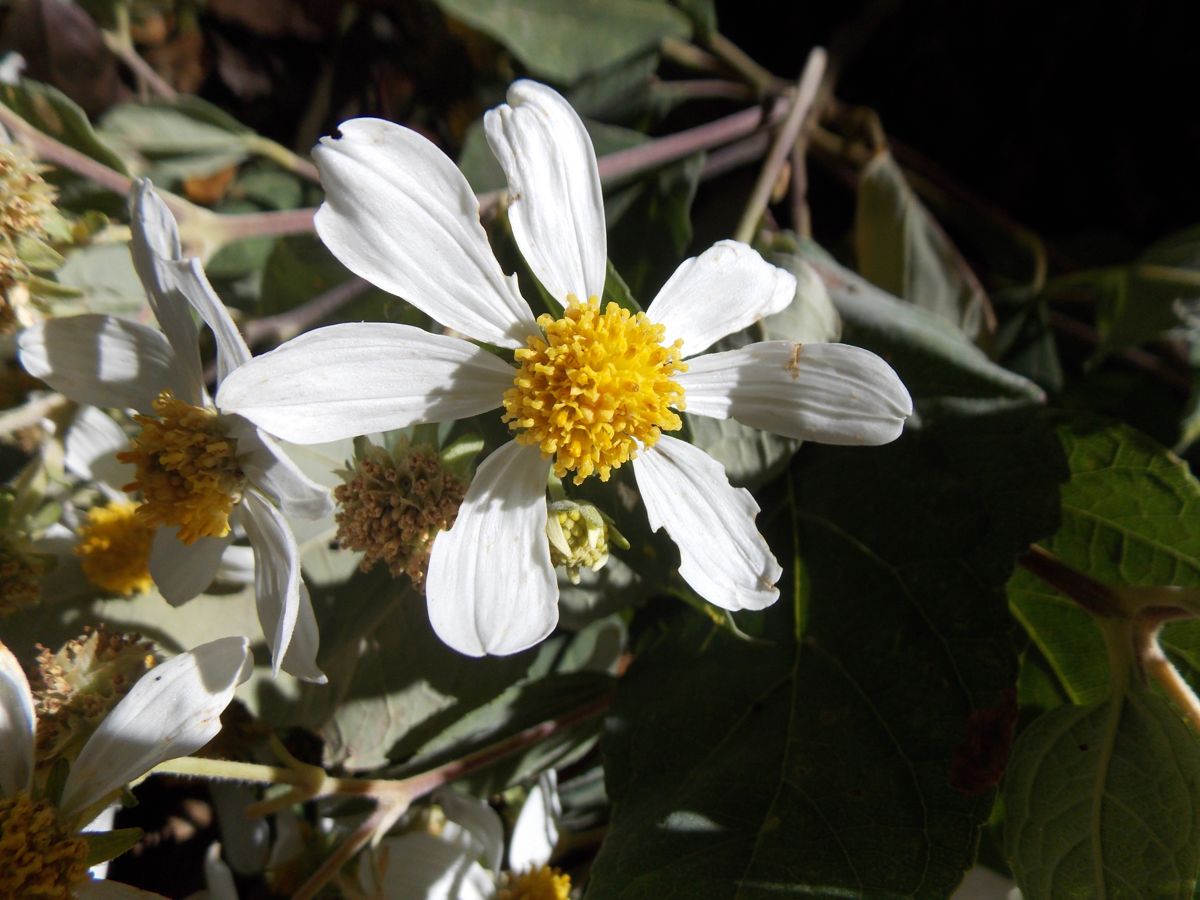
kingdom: Plantae
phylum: Tracheophyta
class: Magnoliopsida
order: Asterales
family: Asteraceae
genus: Montanoa
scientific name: Montanoa guatemalensis
